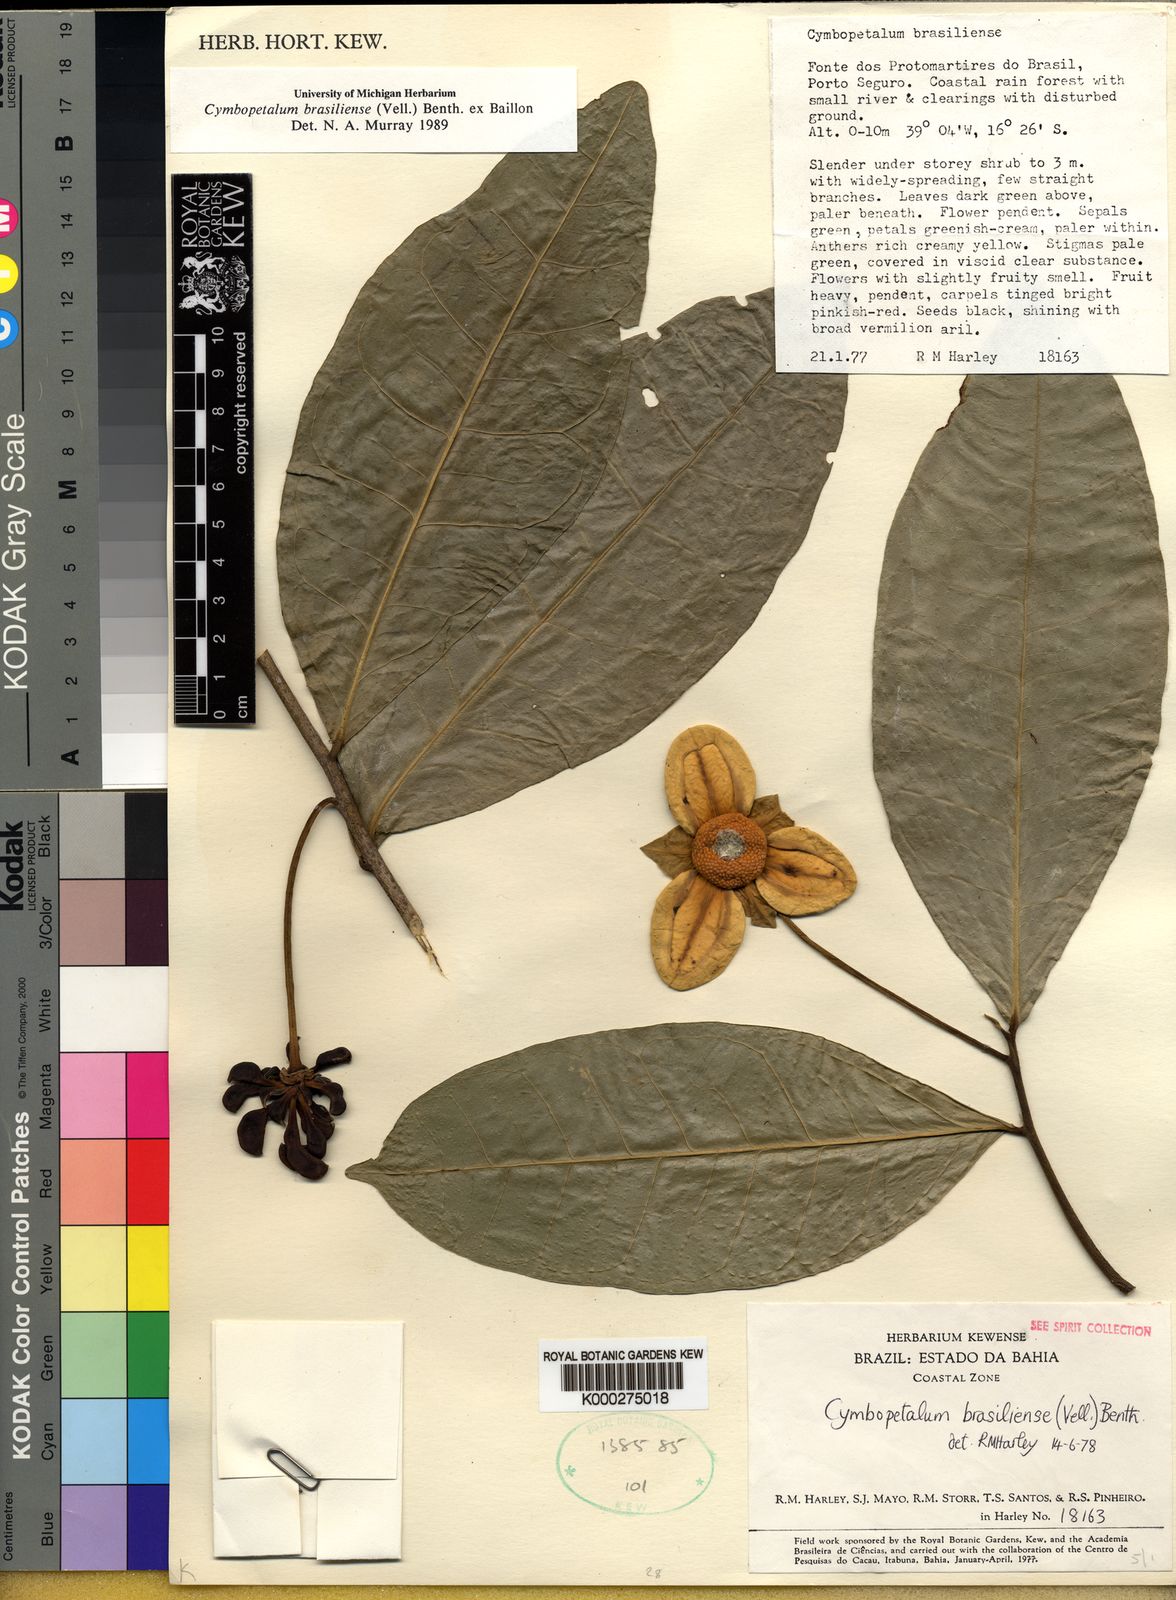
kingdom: Plantae
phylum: Tracheophyta
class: Magnoliopsida
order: Magnoliales
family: Annonaceae
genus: Cymbopetalum
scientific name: Cymbopetalum brasiliense
